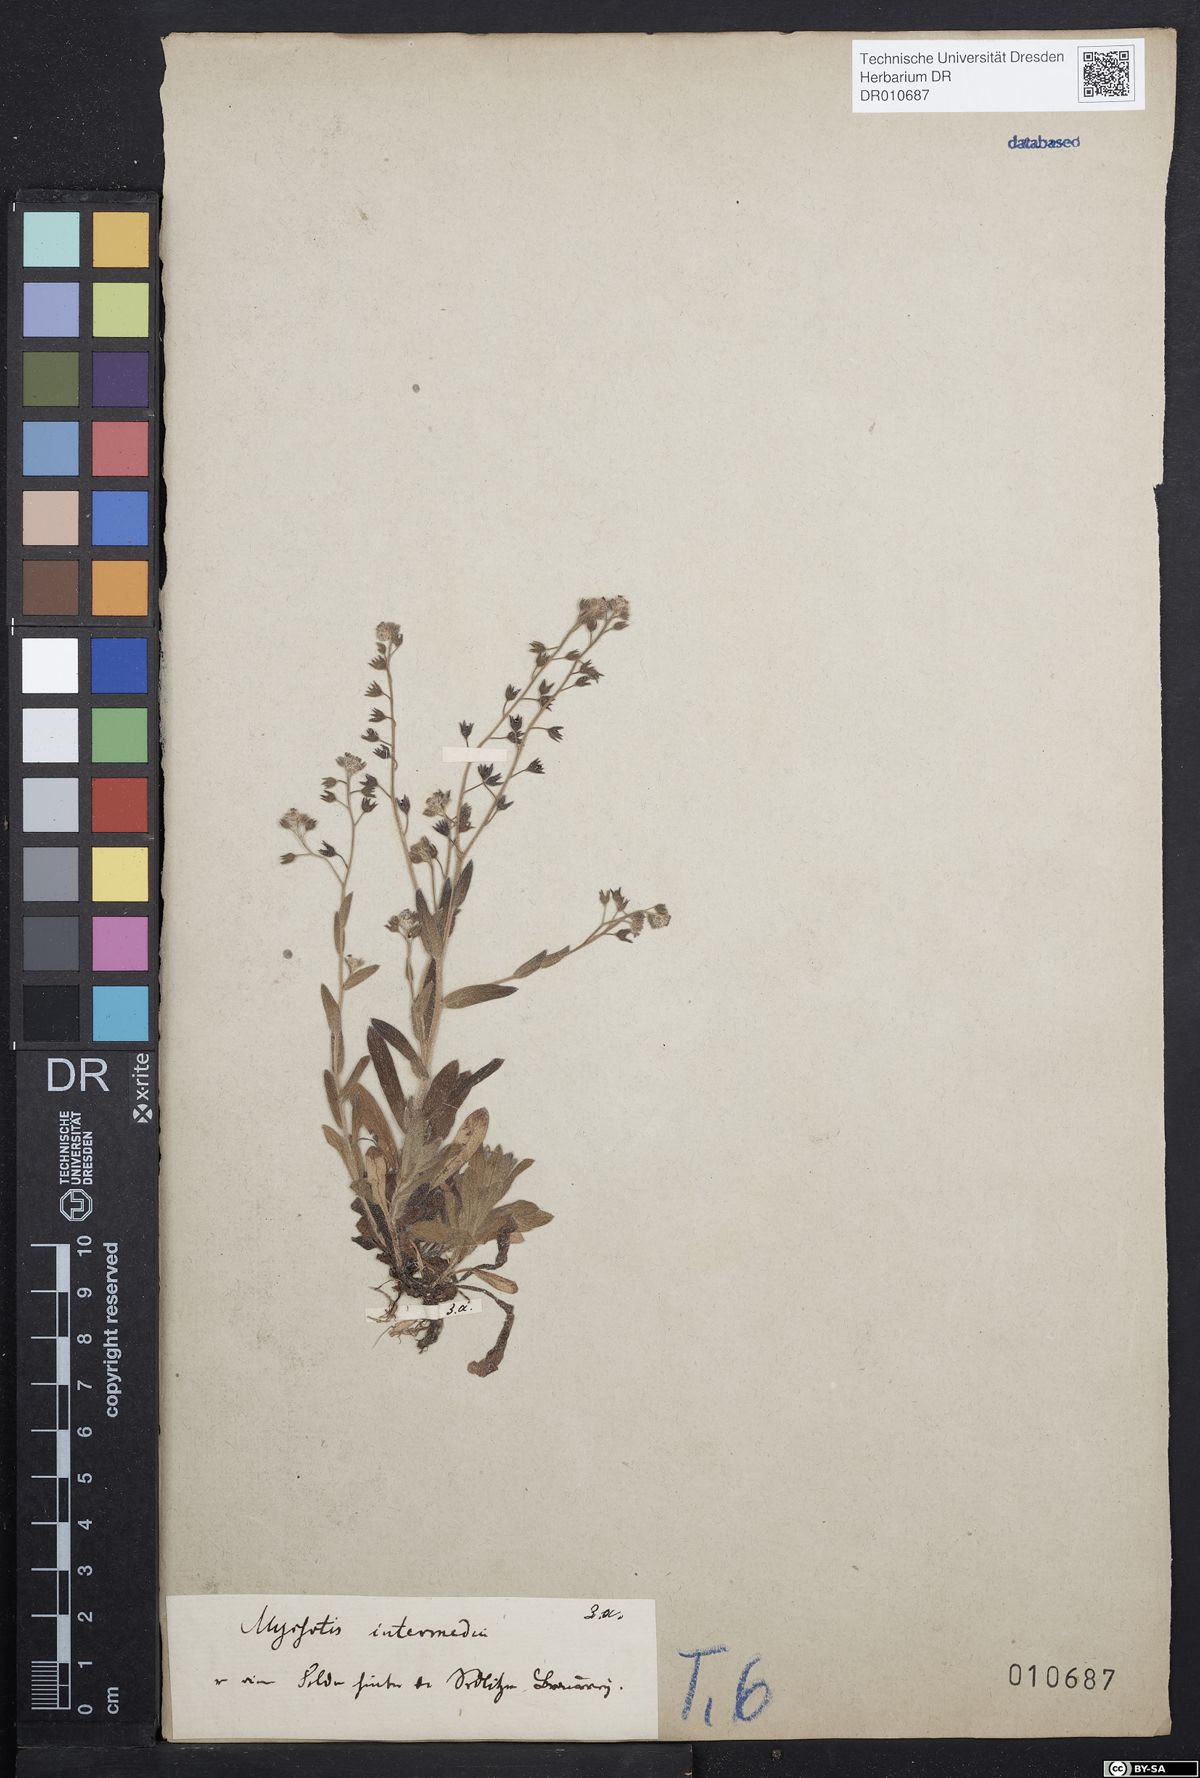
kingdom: Plantae
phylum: Tracheophyta
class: Magnoliopsida
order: Boraginales
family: Boraginaceae
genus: Myosotis
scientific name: Myosotis arvensis
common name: Field forget-me-not
